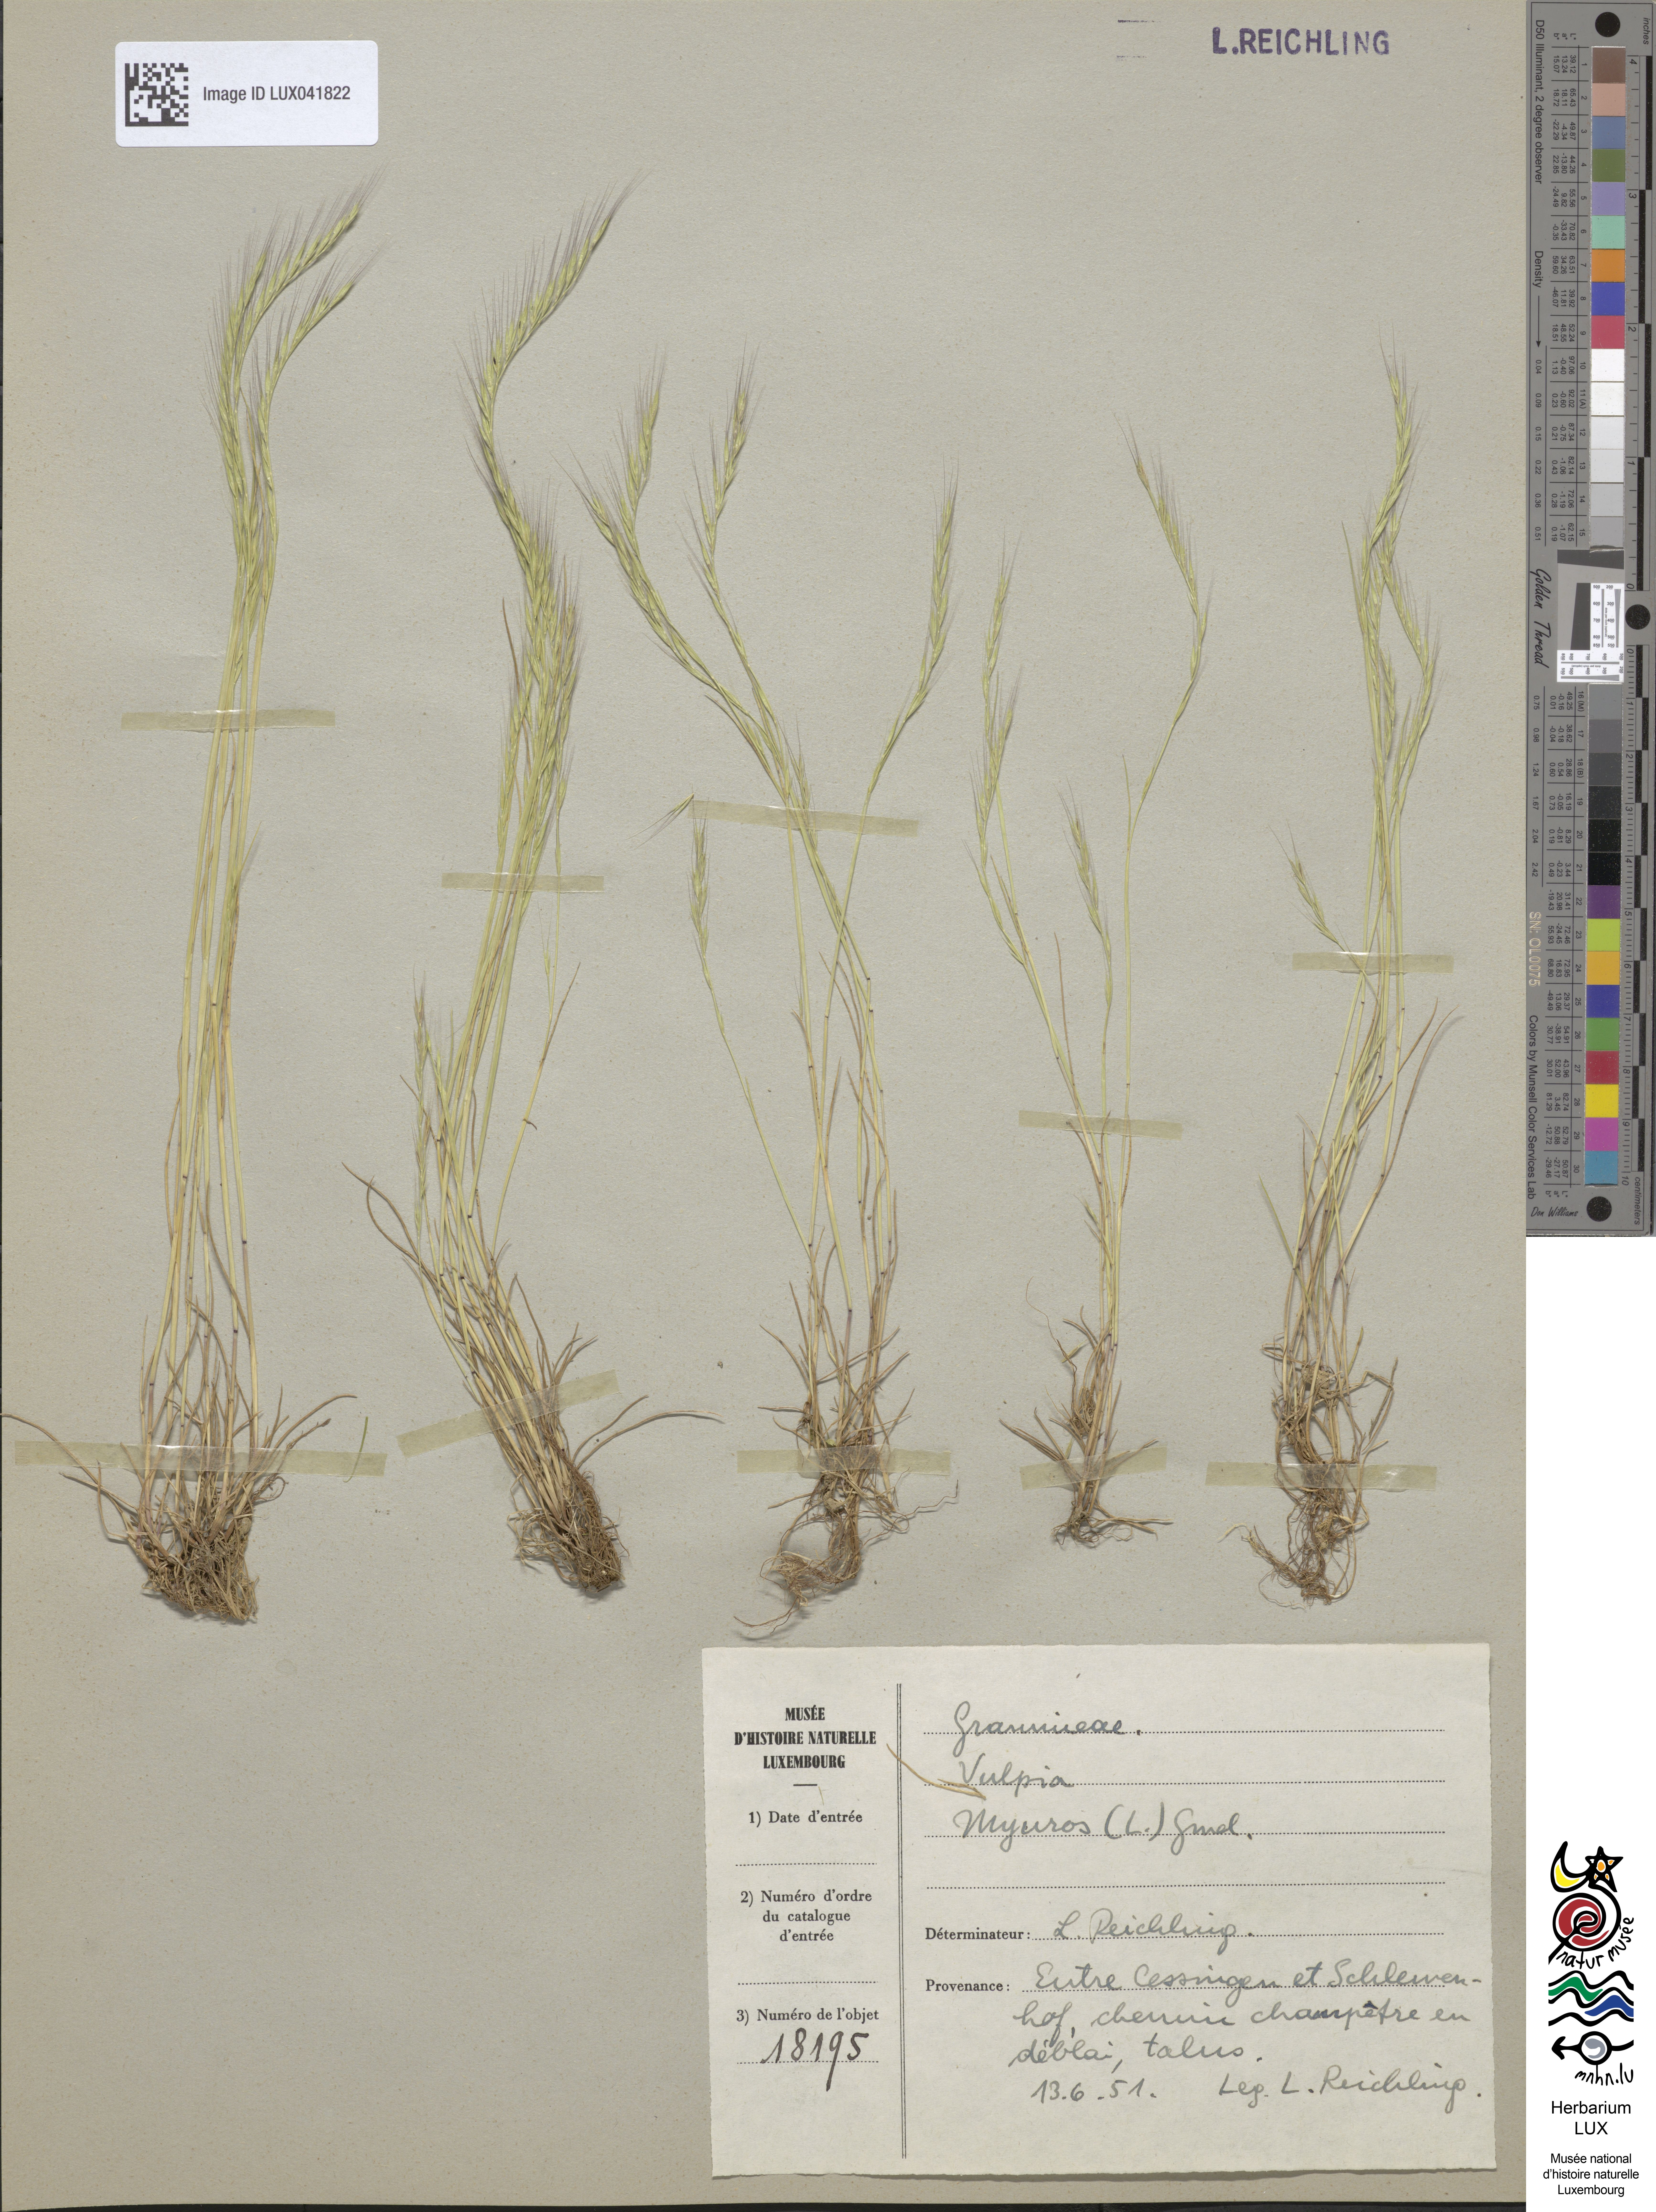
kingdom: Plantae
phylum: Tracheophyta
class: Liliopsida
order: Poales
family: Poaceae
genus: Festuca
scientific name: Festuca myuros
